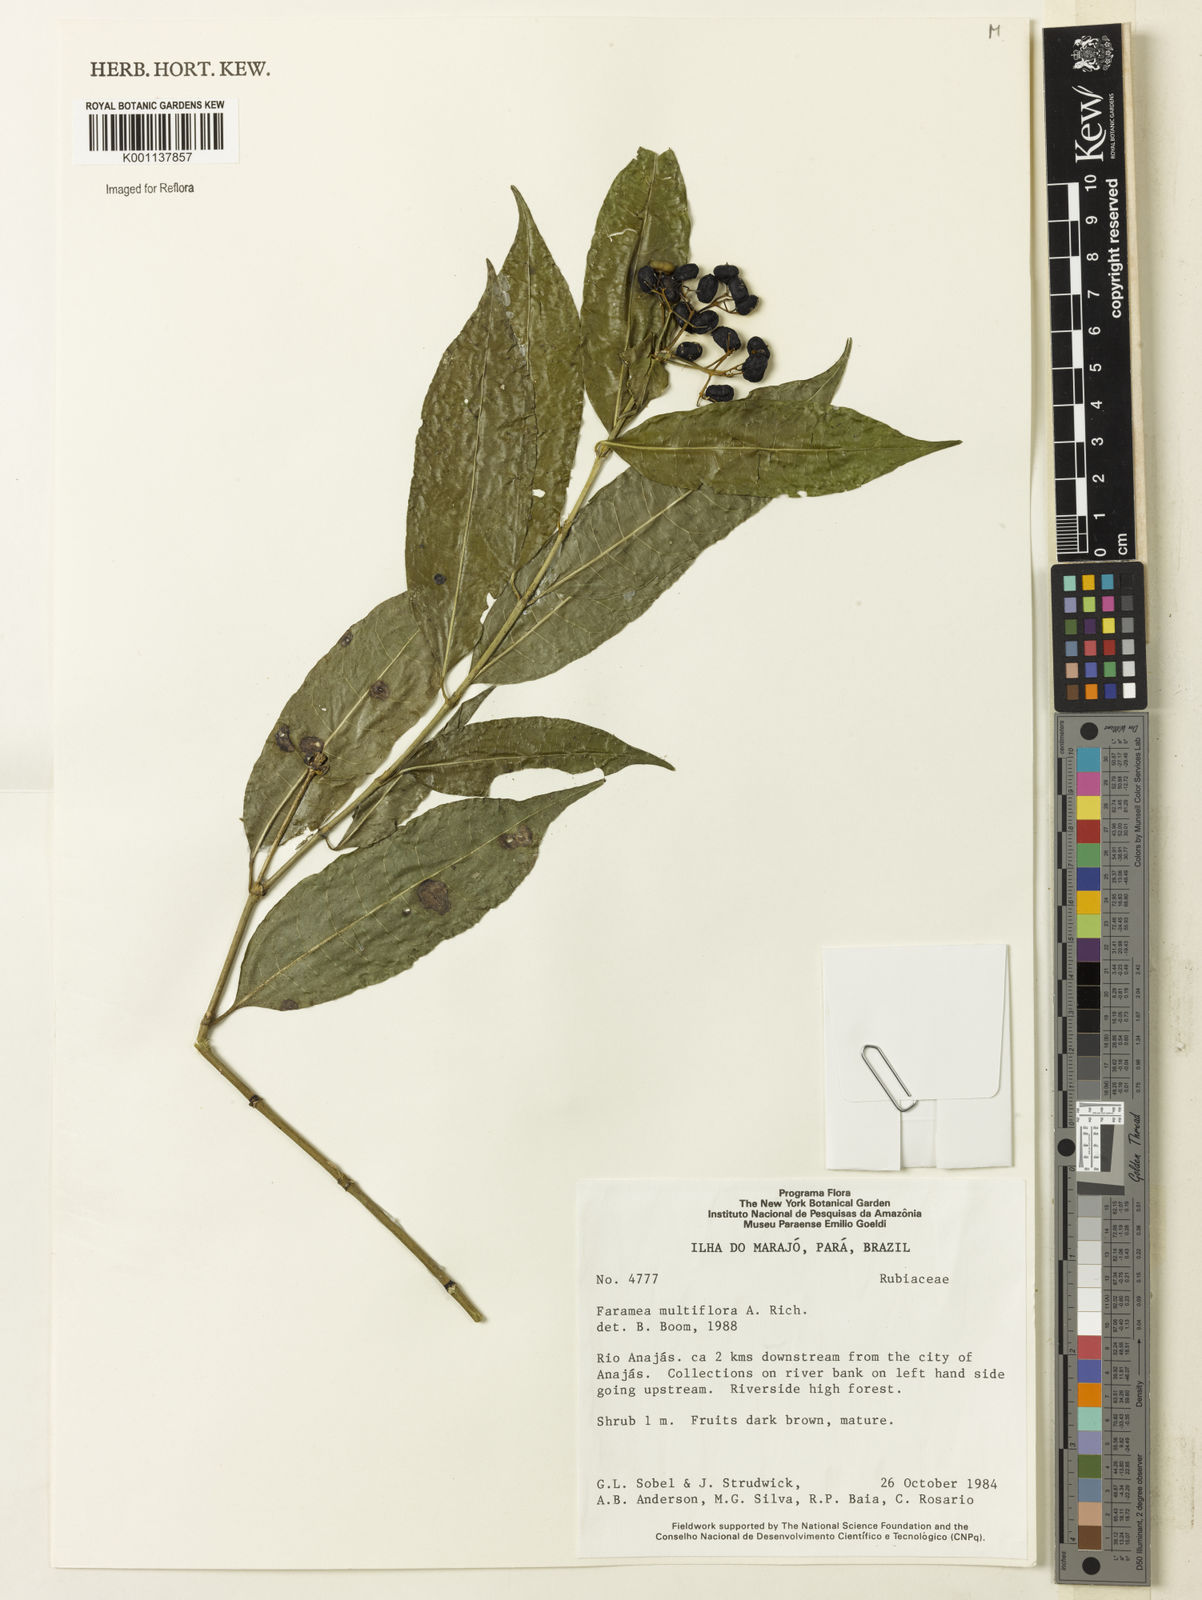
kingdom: Plantae
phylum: Tracheophyta
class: Magnoliopsida
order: Gentianales
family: Rubiaceae
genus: Faramea
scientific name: Faramea multiflora
